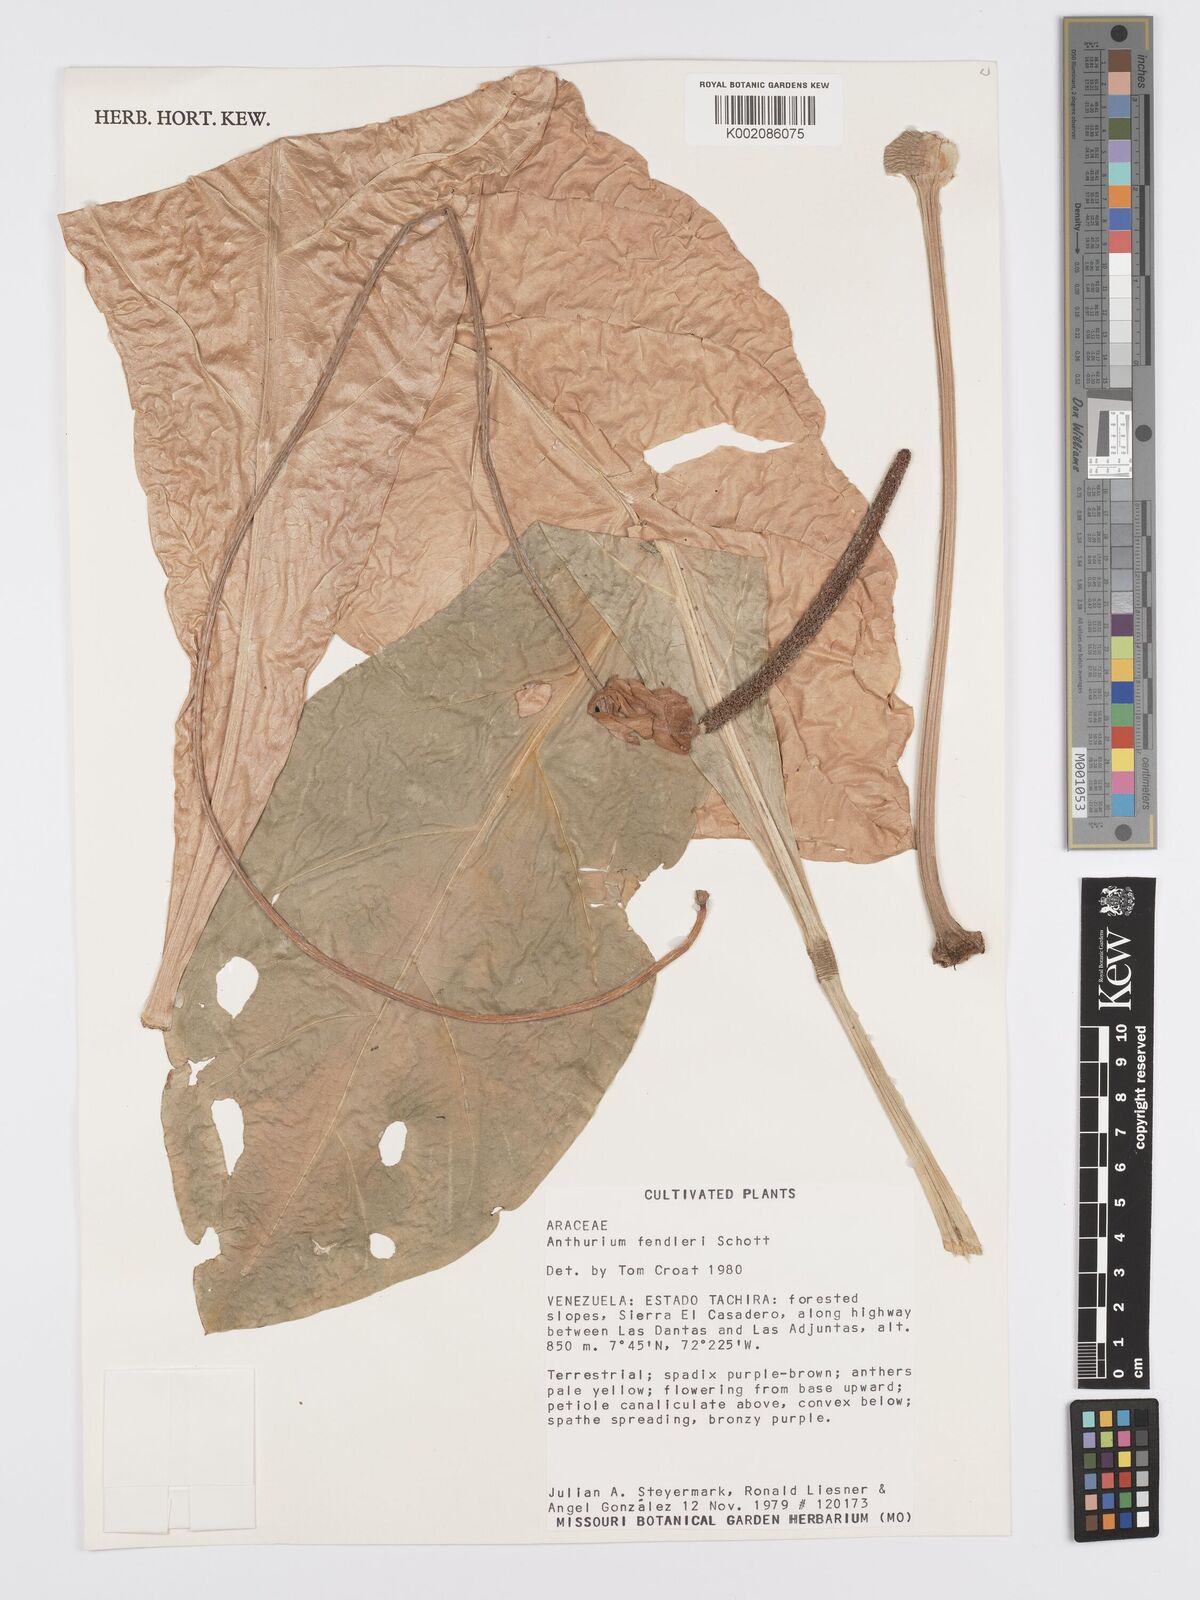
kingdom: Plantae
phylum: Tracheophyta
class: Liliopsida
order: Alismatales
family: Araceae
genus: Anthurium
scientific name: Anthurium fendleri
